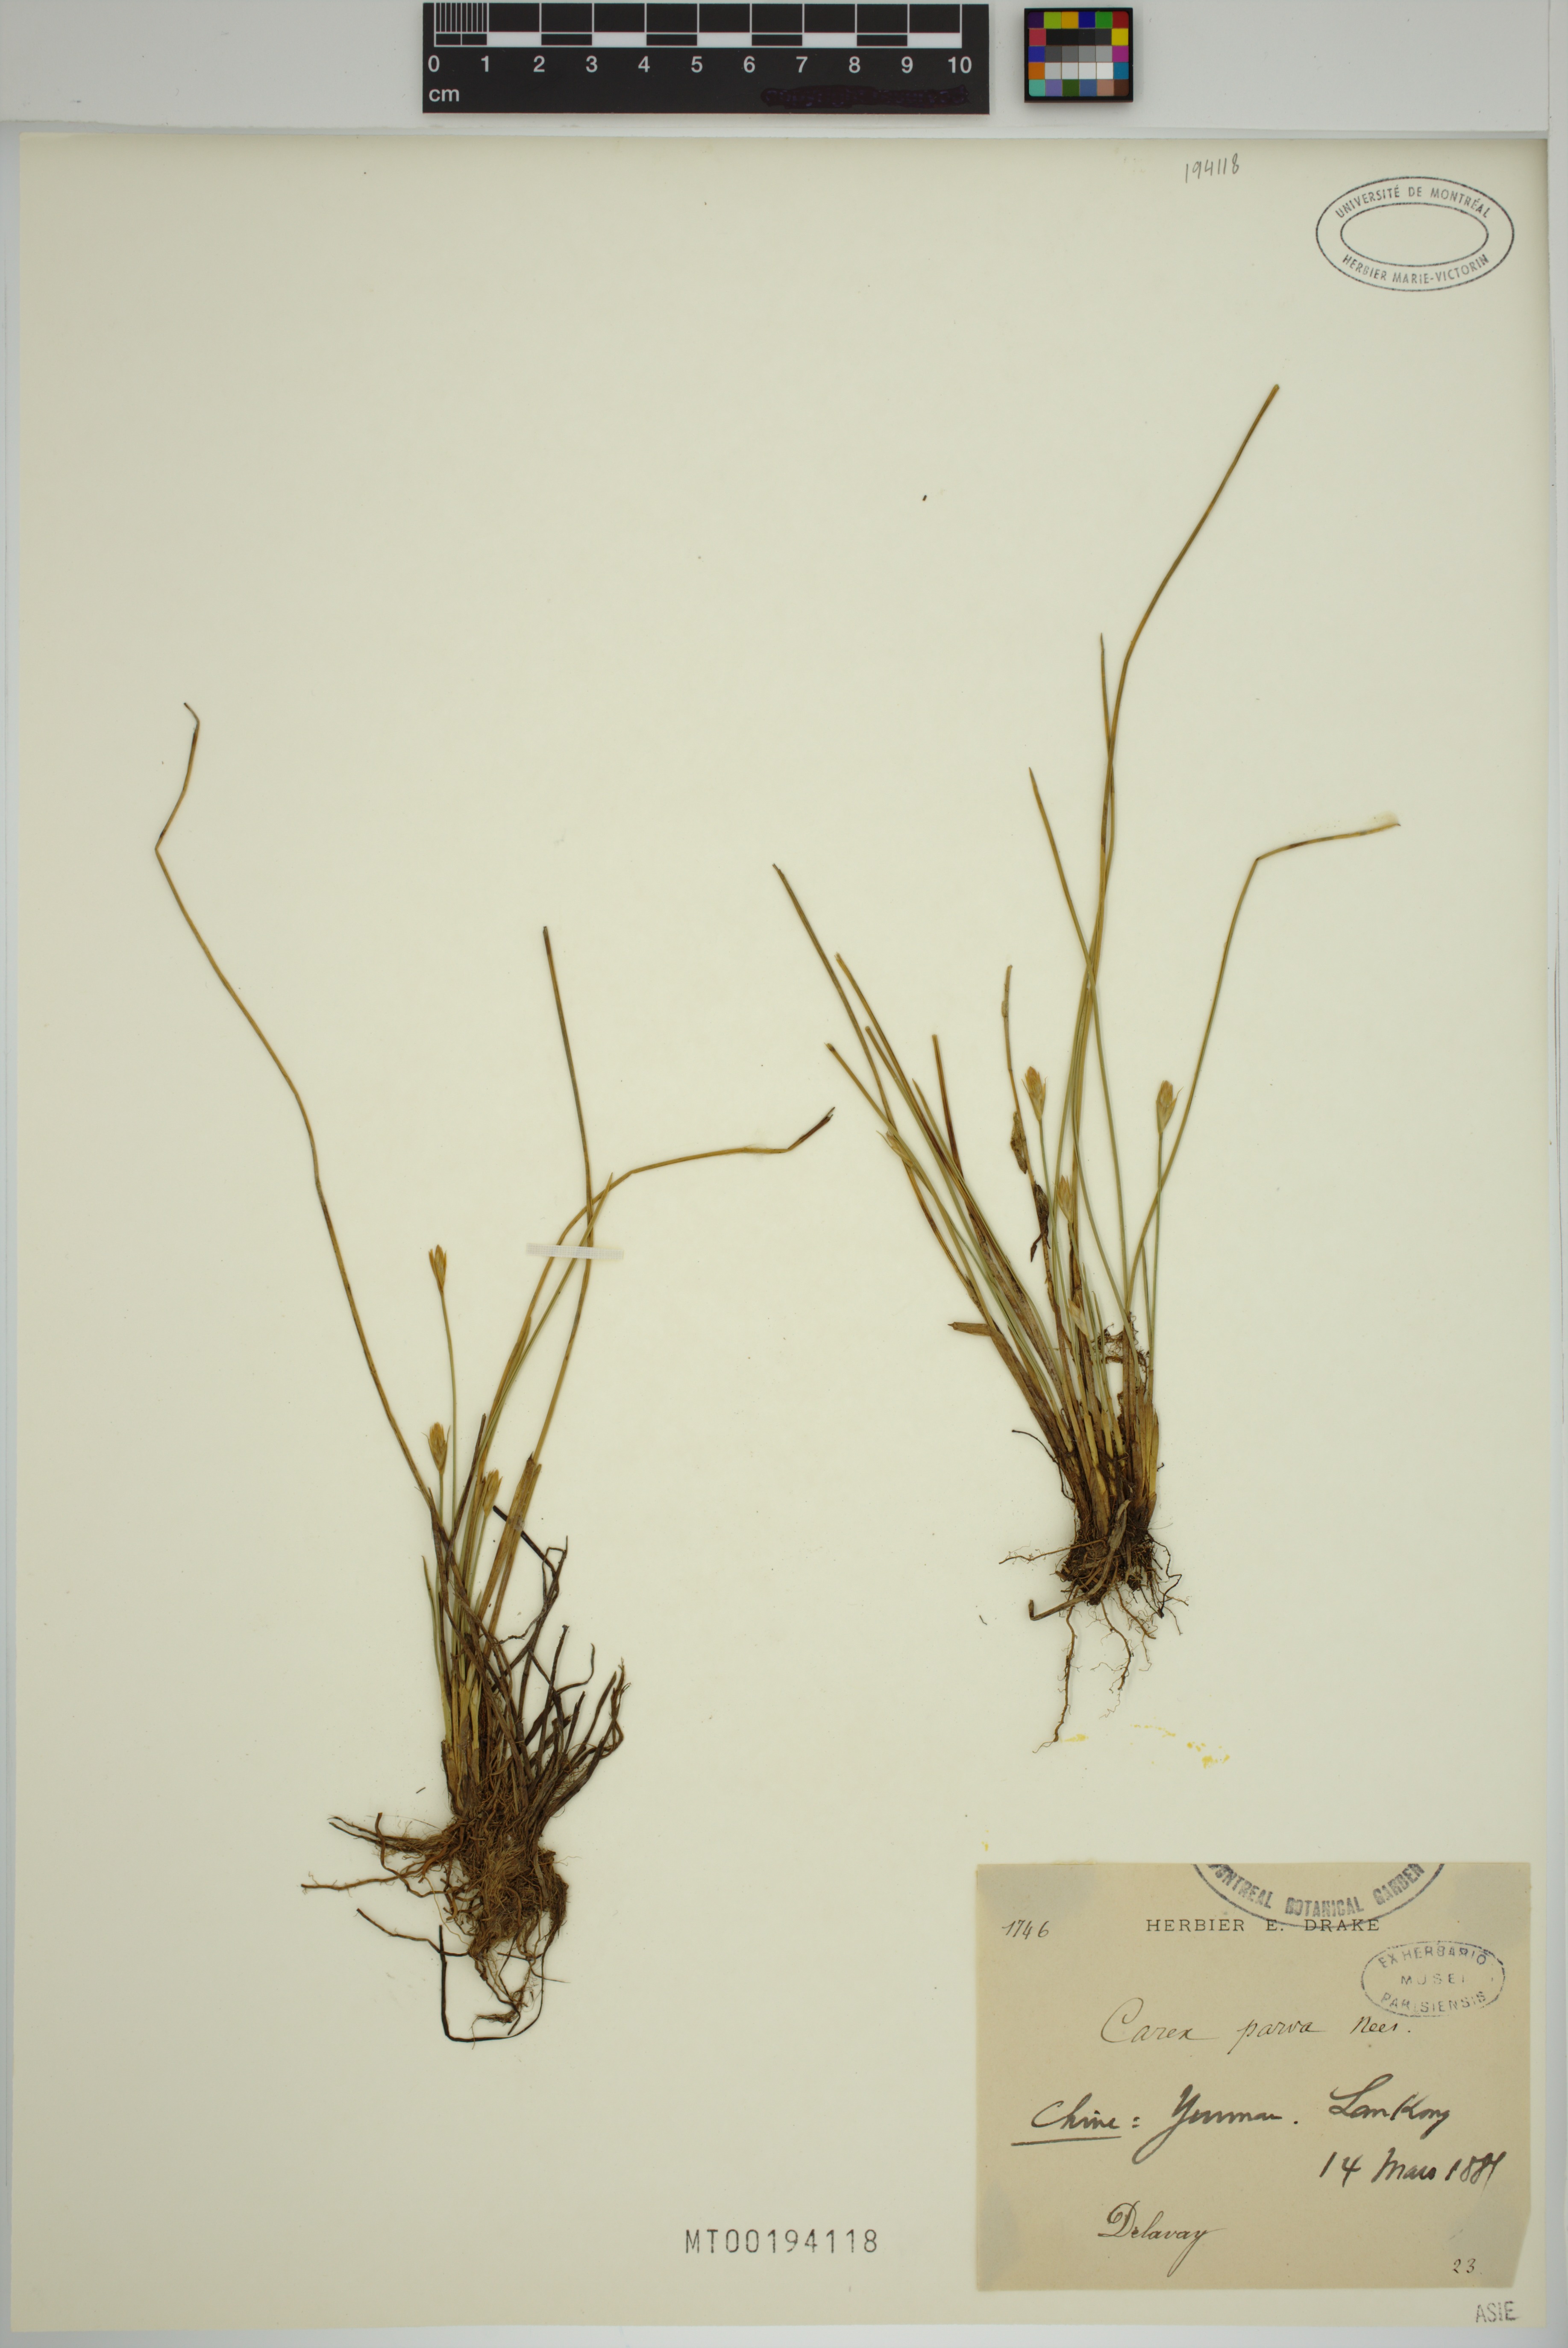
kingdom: Plantae
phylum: Tracheophyta
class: Liliopsida
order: Poales
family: Cyperaceae
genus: Carex
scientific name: Carex parva
